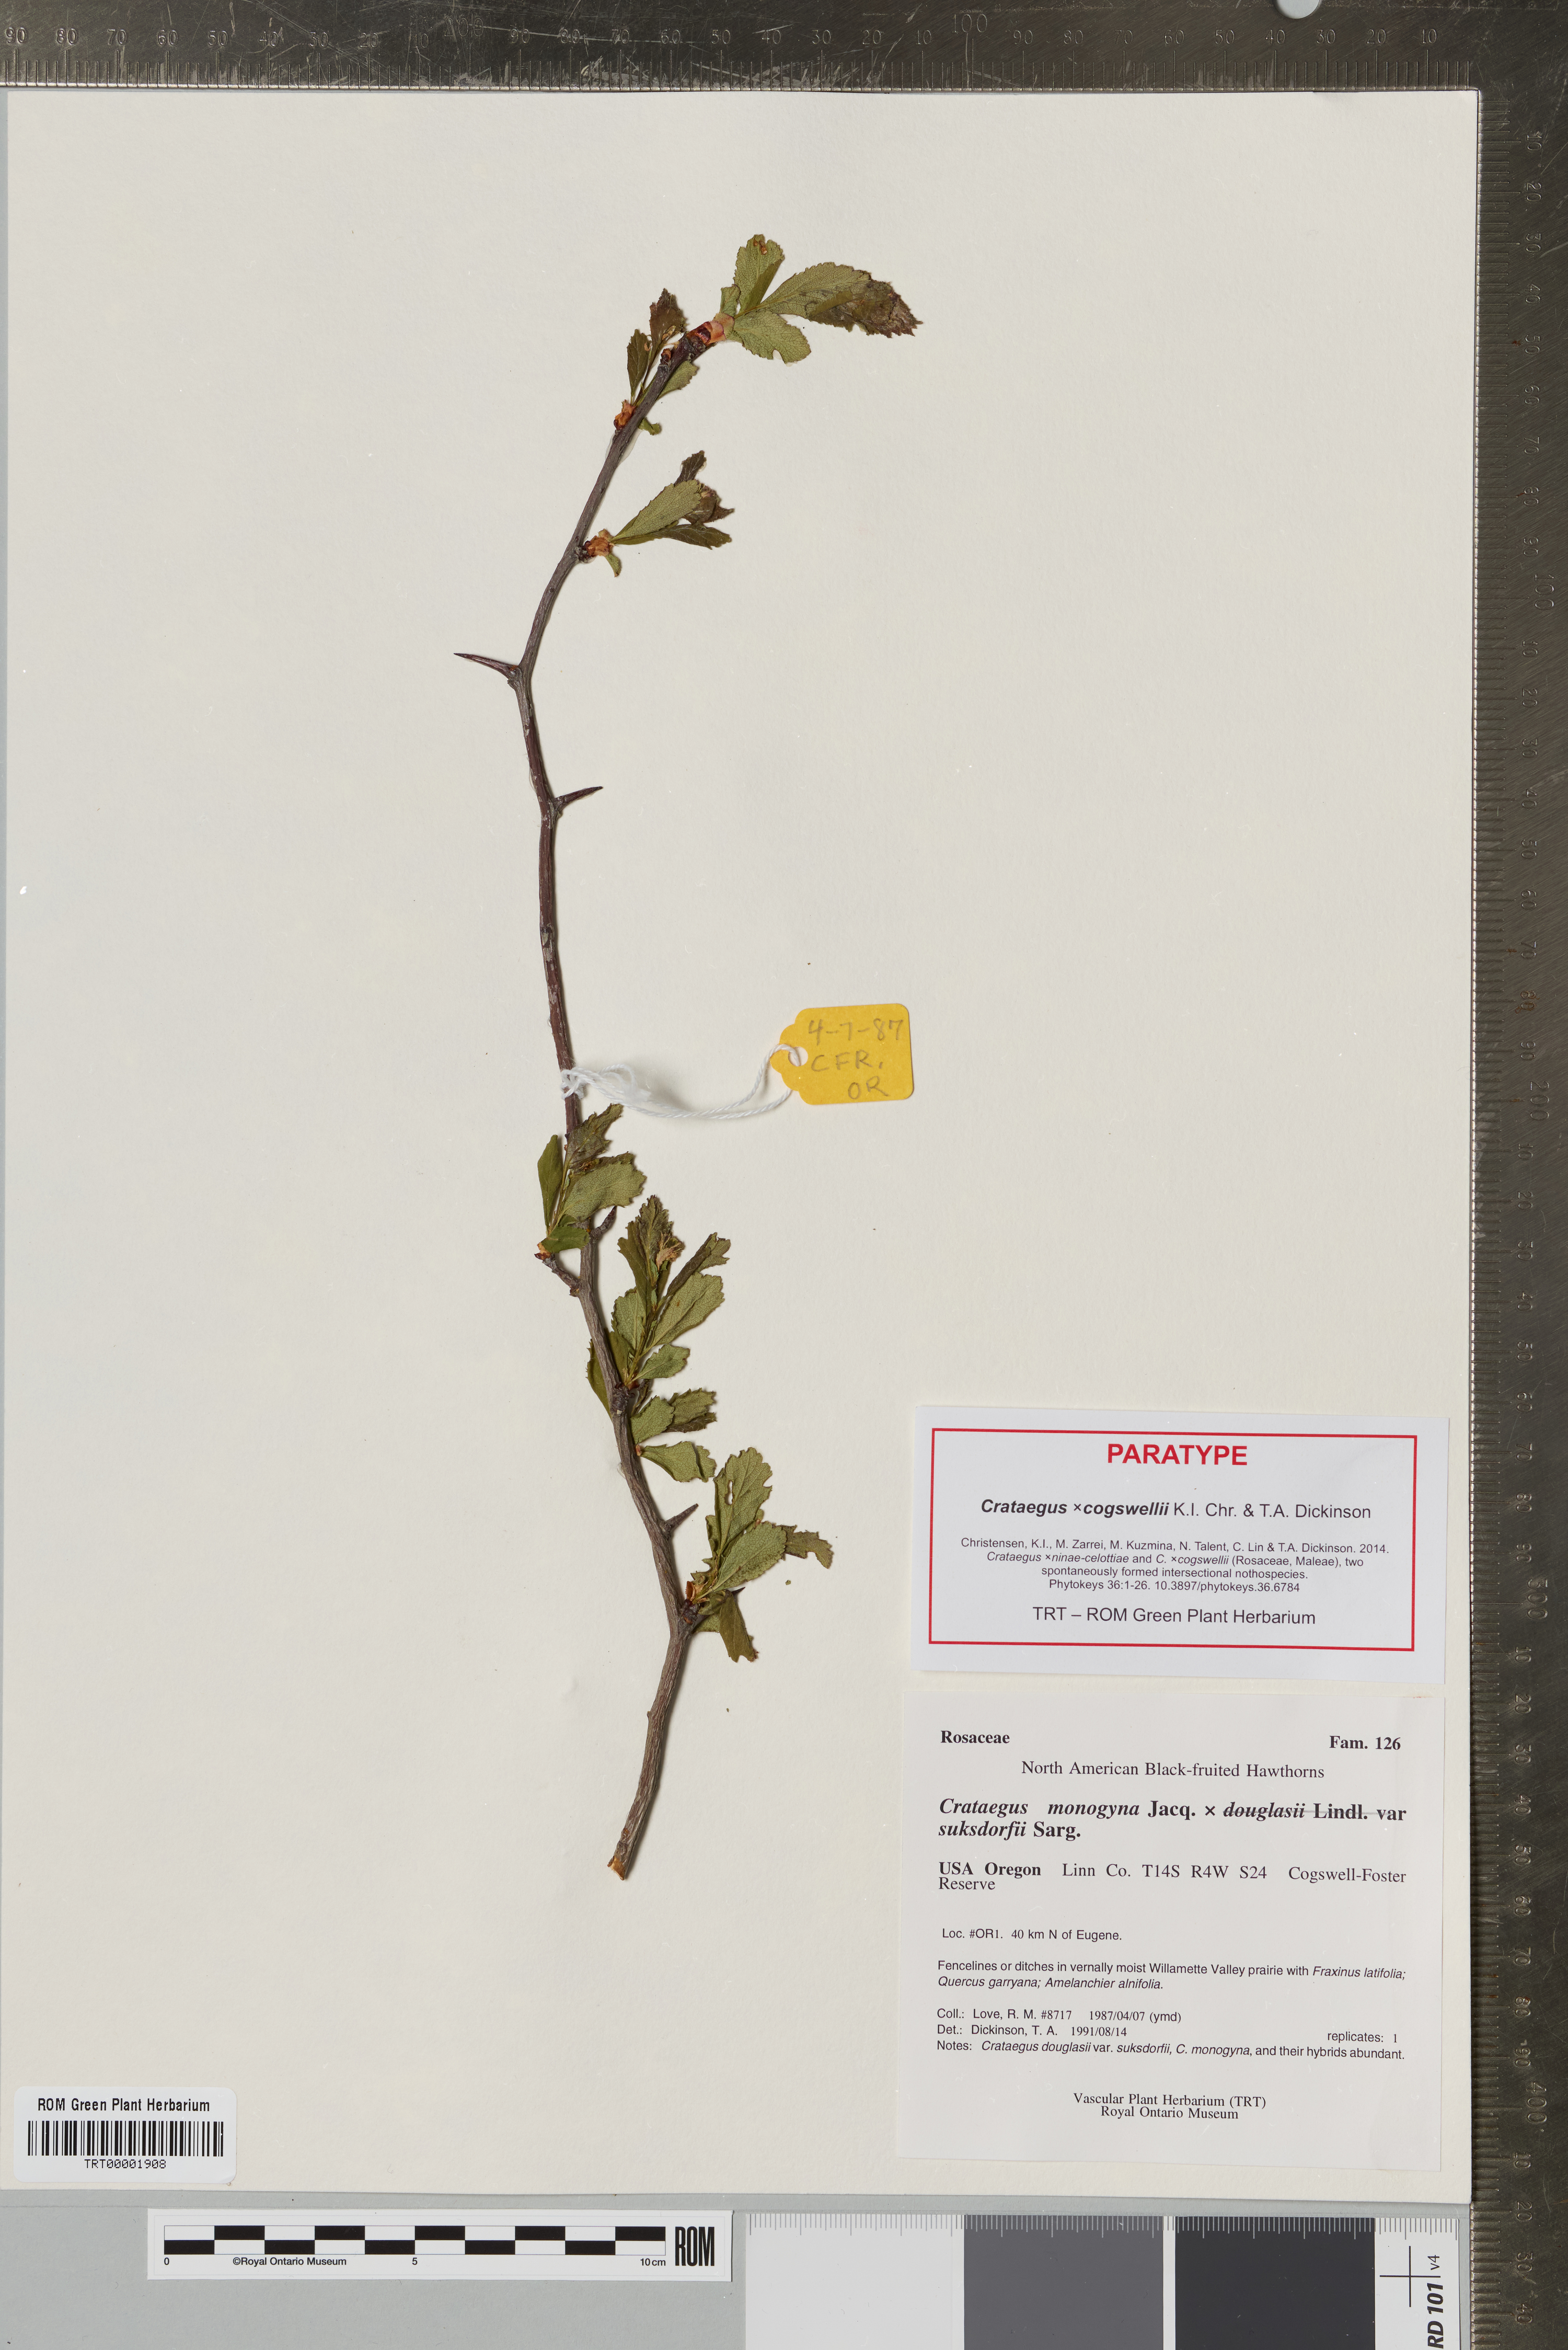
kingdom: Plantae
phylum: Tracheophyta
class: Magnoliopsida
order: Rosales
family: Rosaceae
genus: Crataegus
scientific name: Crataegus
